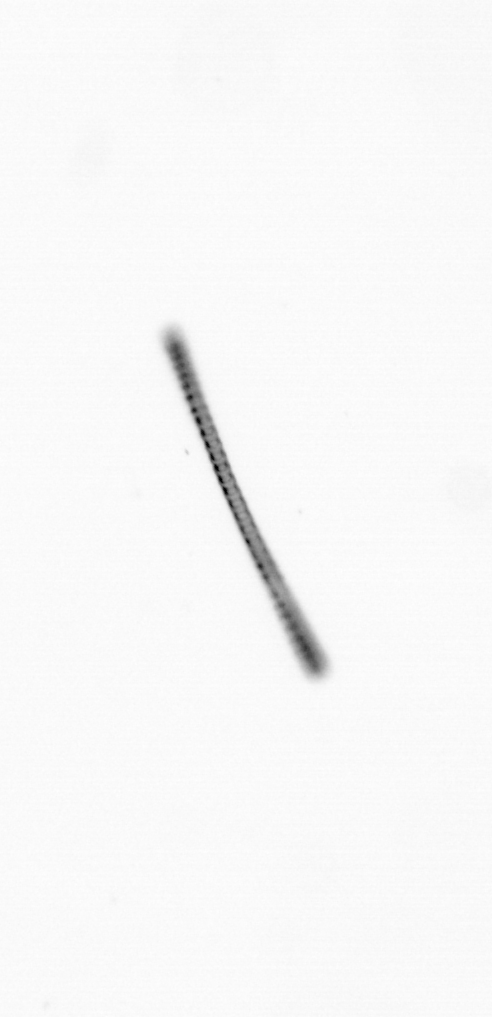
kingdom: Chromista
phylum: Ochrophyta
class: Bacillariophyceae
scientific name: Bacillariophyceae
